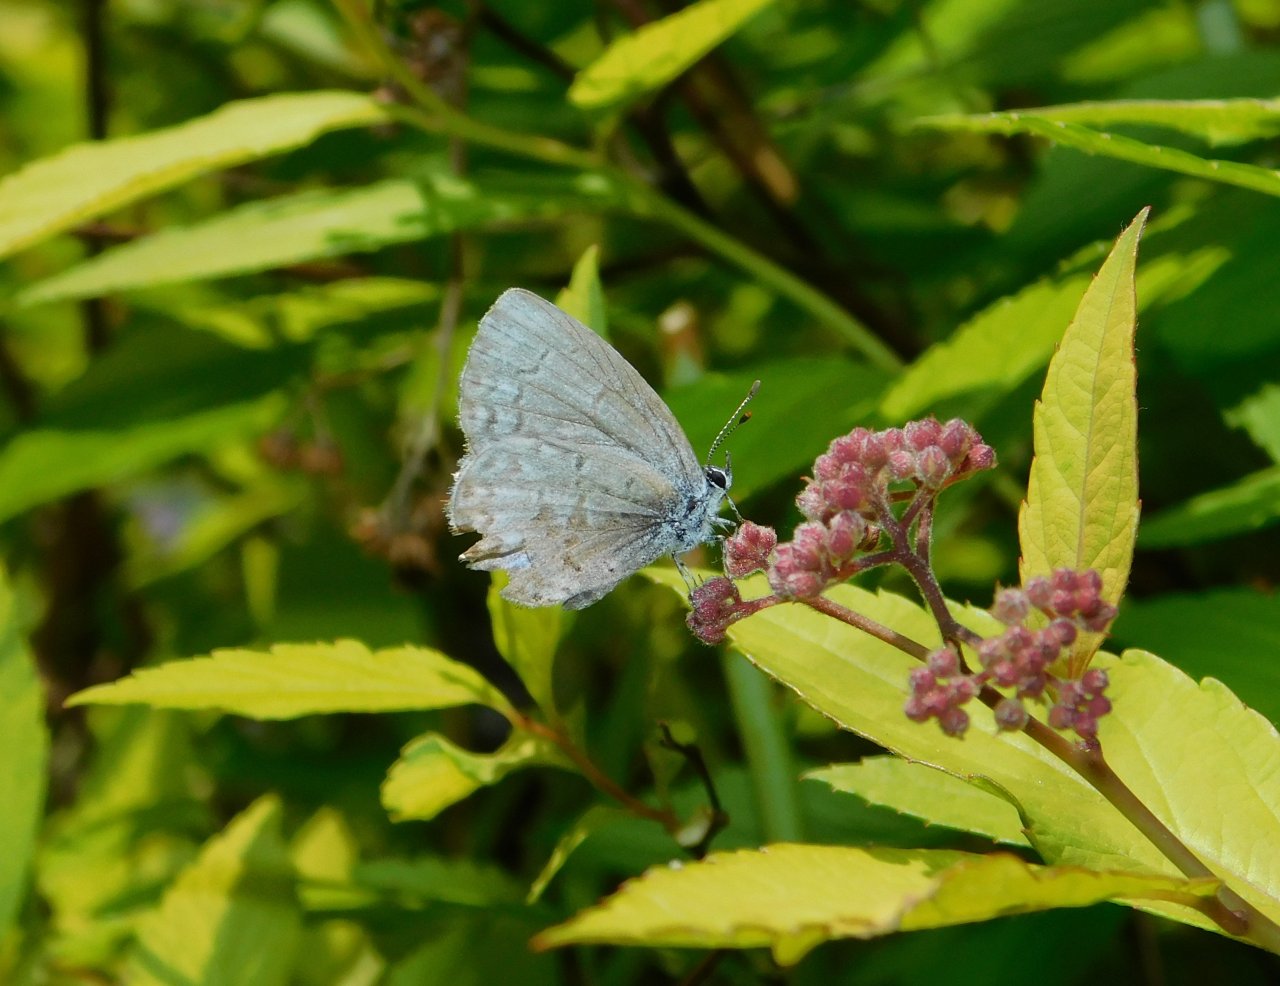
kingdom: Animalia
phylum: Arthropoda
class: Insecta
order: Lepidoptera
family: Lycaenidae
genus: Celastrina
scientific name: Celastrina lucia
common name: Northern Spring Azure
